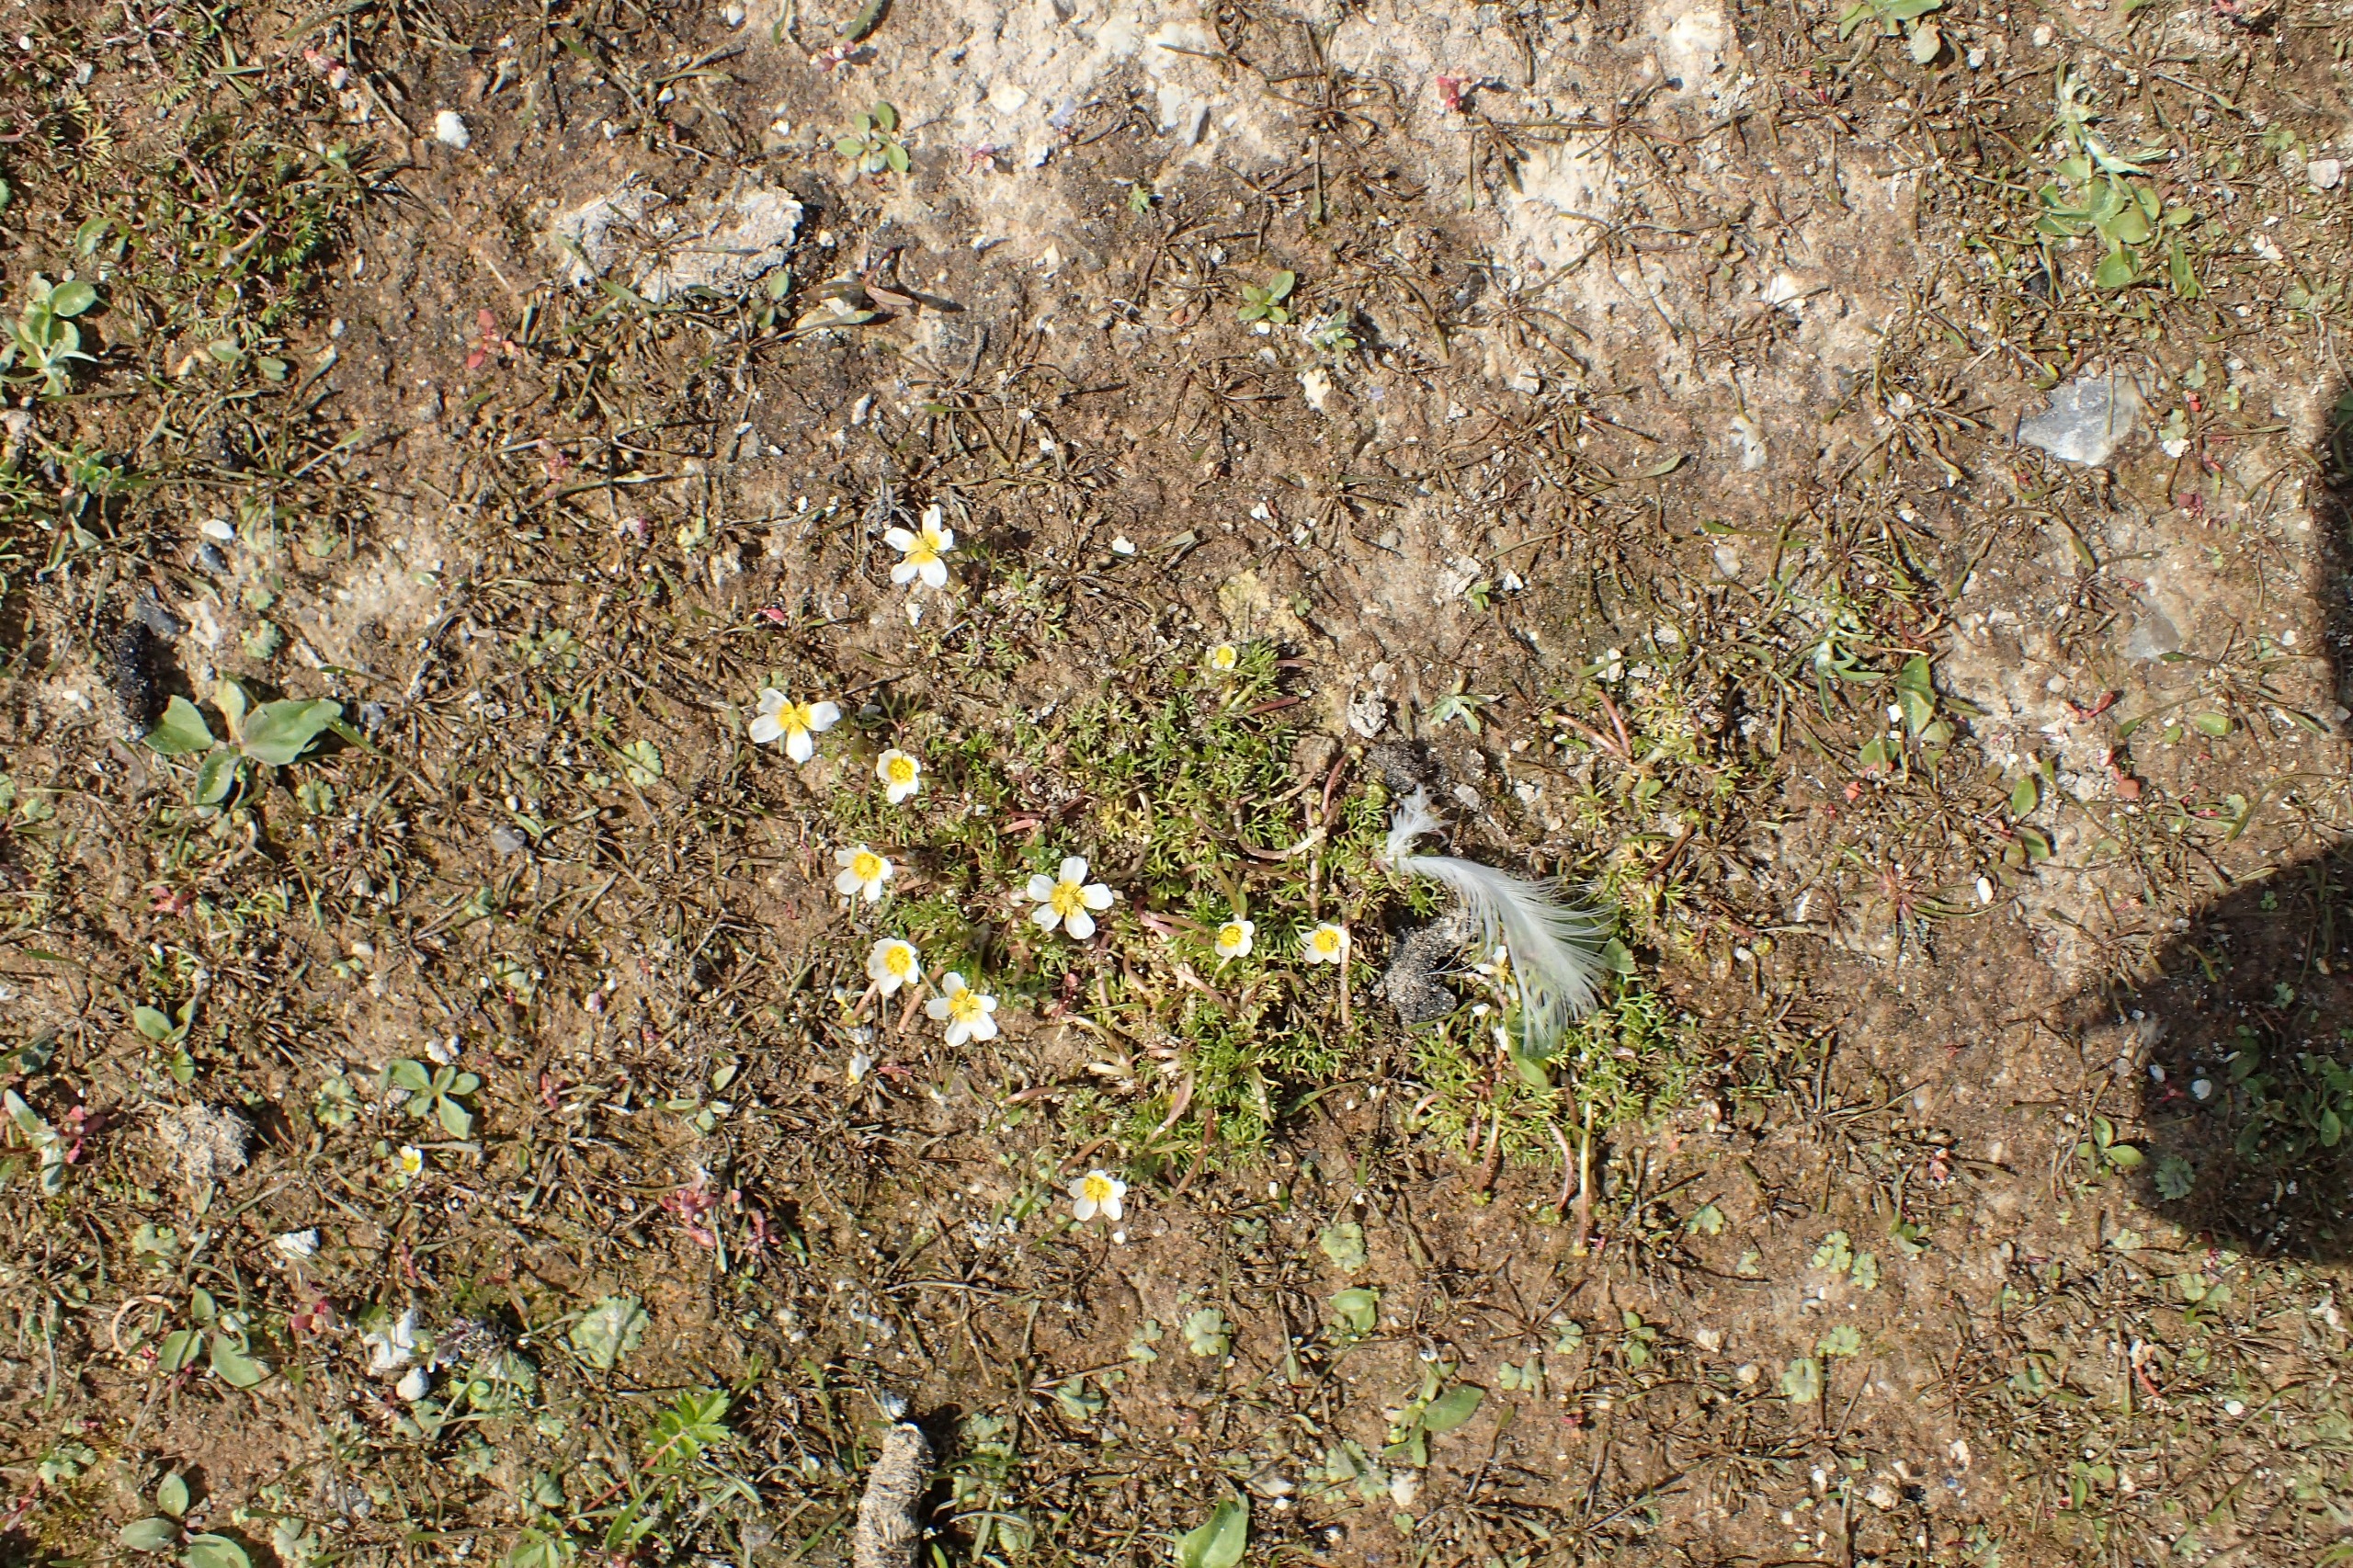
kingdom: Plantae
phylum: Tracheophyta
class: Magnoliopsida
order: Ranunculales
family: Ranunculaceae
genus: Ranunculus
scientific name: Ranunculus
